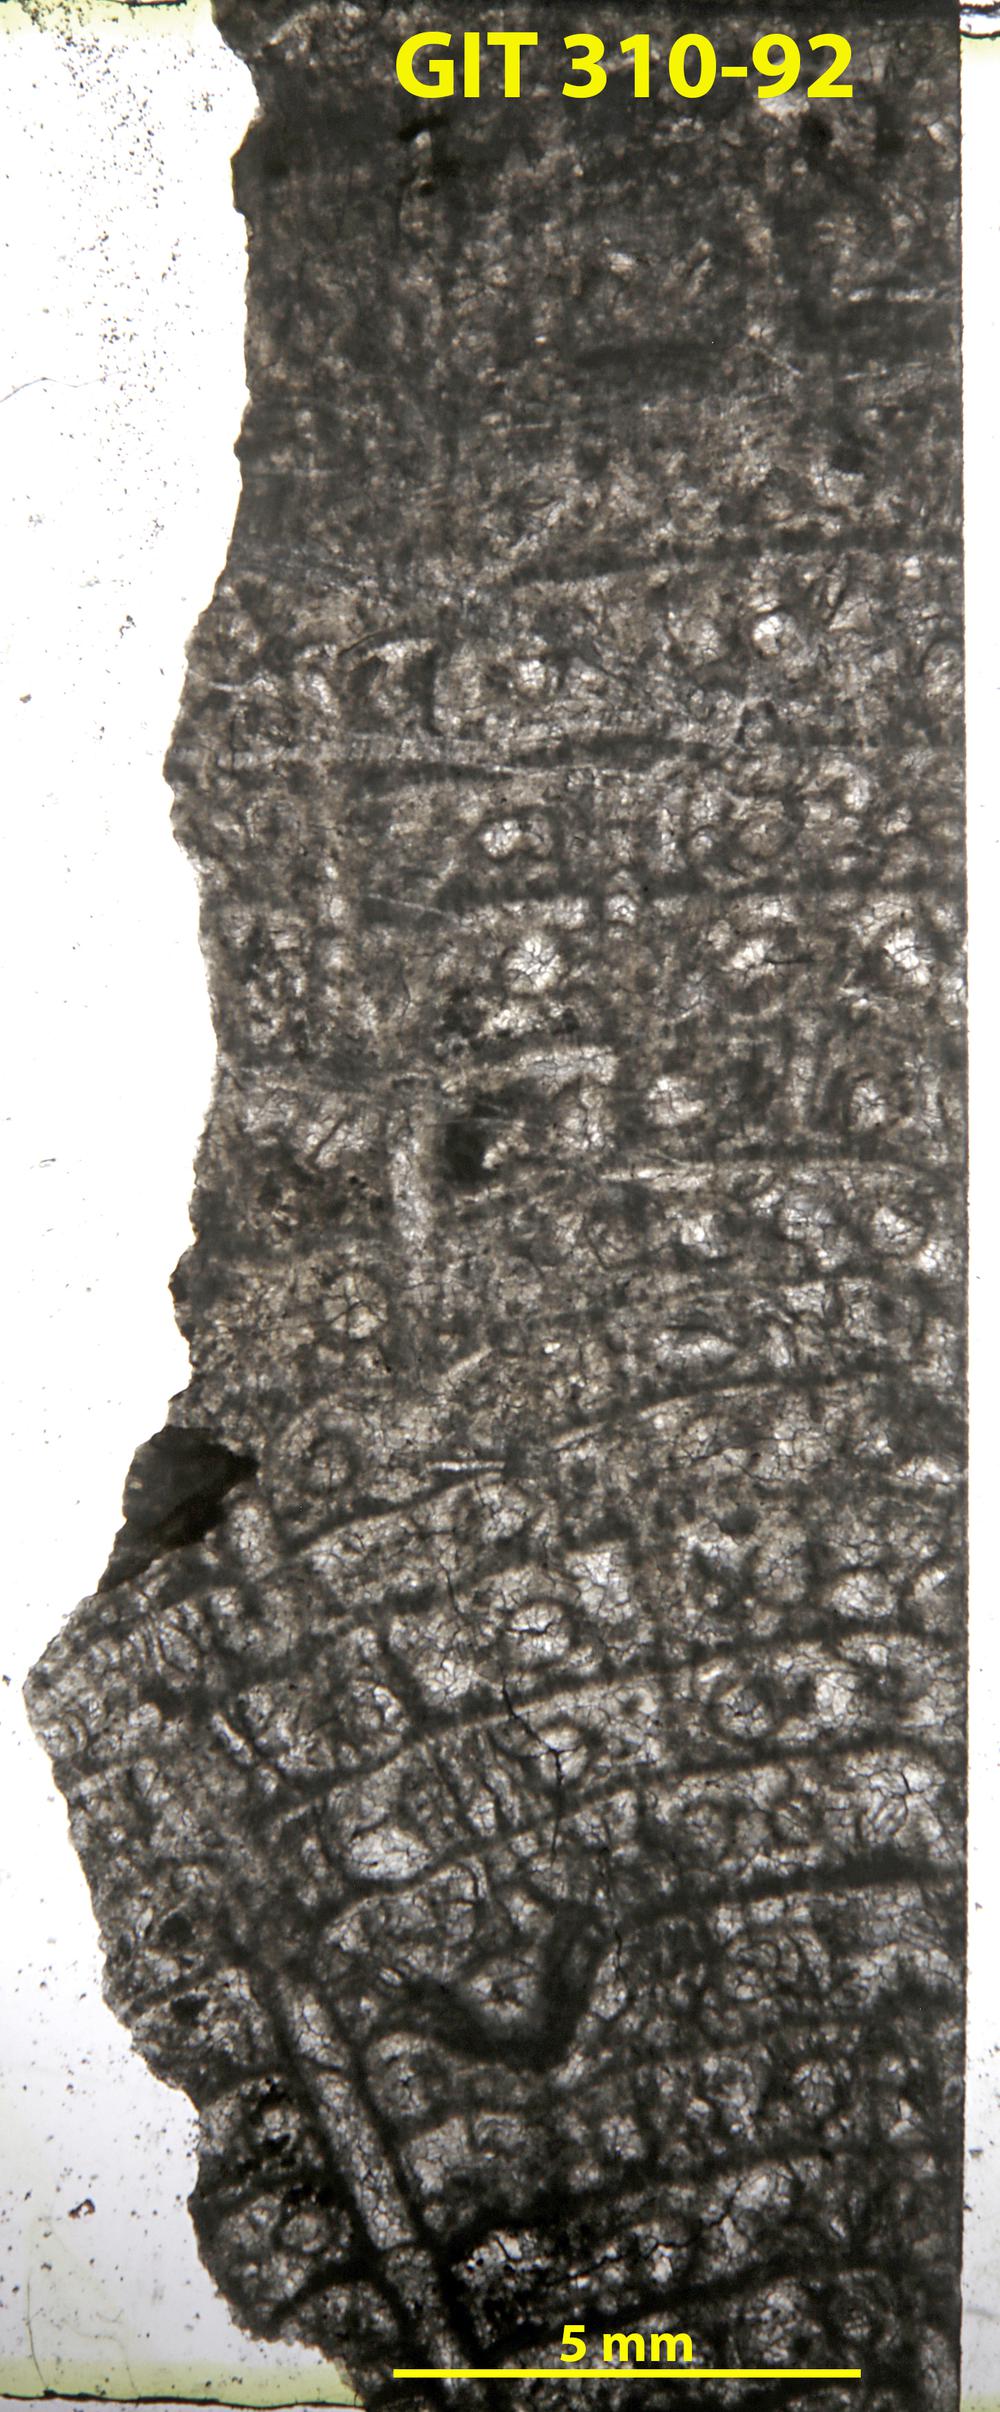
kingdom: Animalia
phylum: Porifera
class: Hexactinellida
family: Cliefdenellidae
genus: Cliefdenella
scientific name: Cliefdenella
